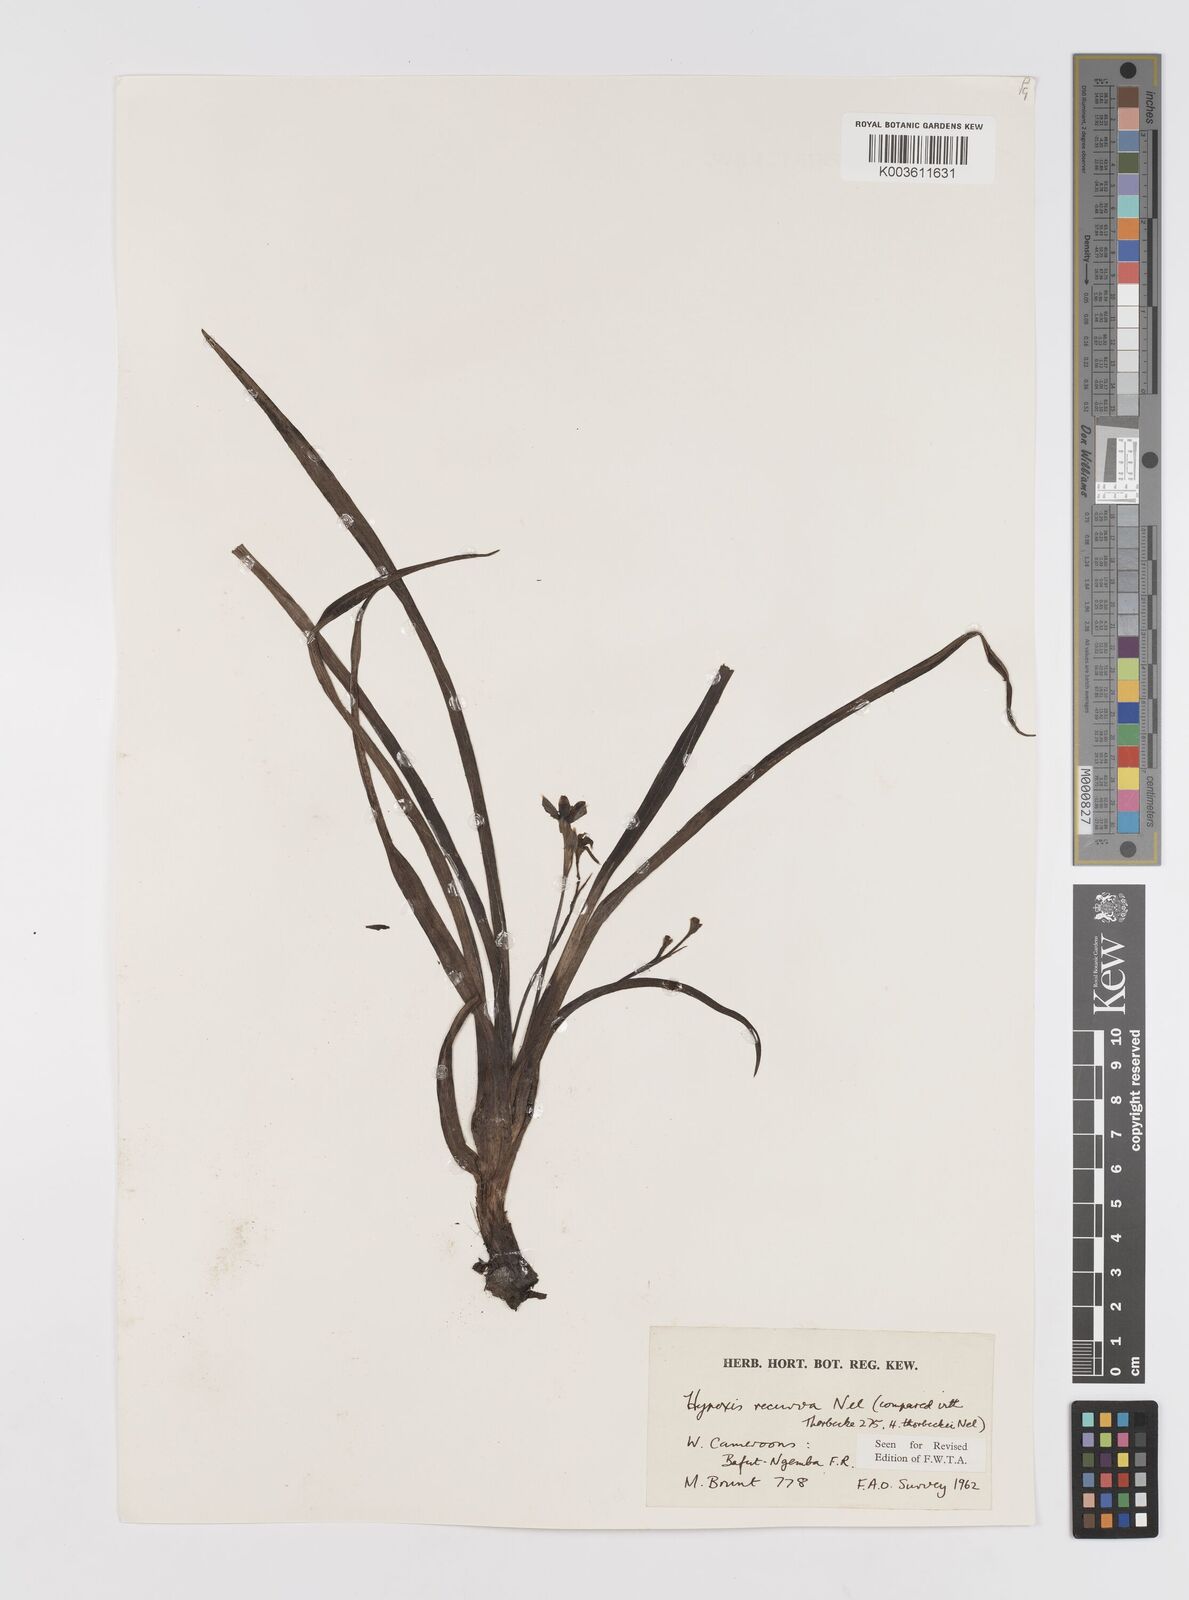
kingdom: Plantae
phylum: Tracheophyta
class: Liliopsida
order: Asparagales
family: Hypoxidaceae
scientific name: Hypoxidaceae
